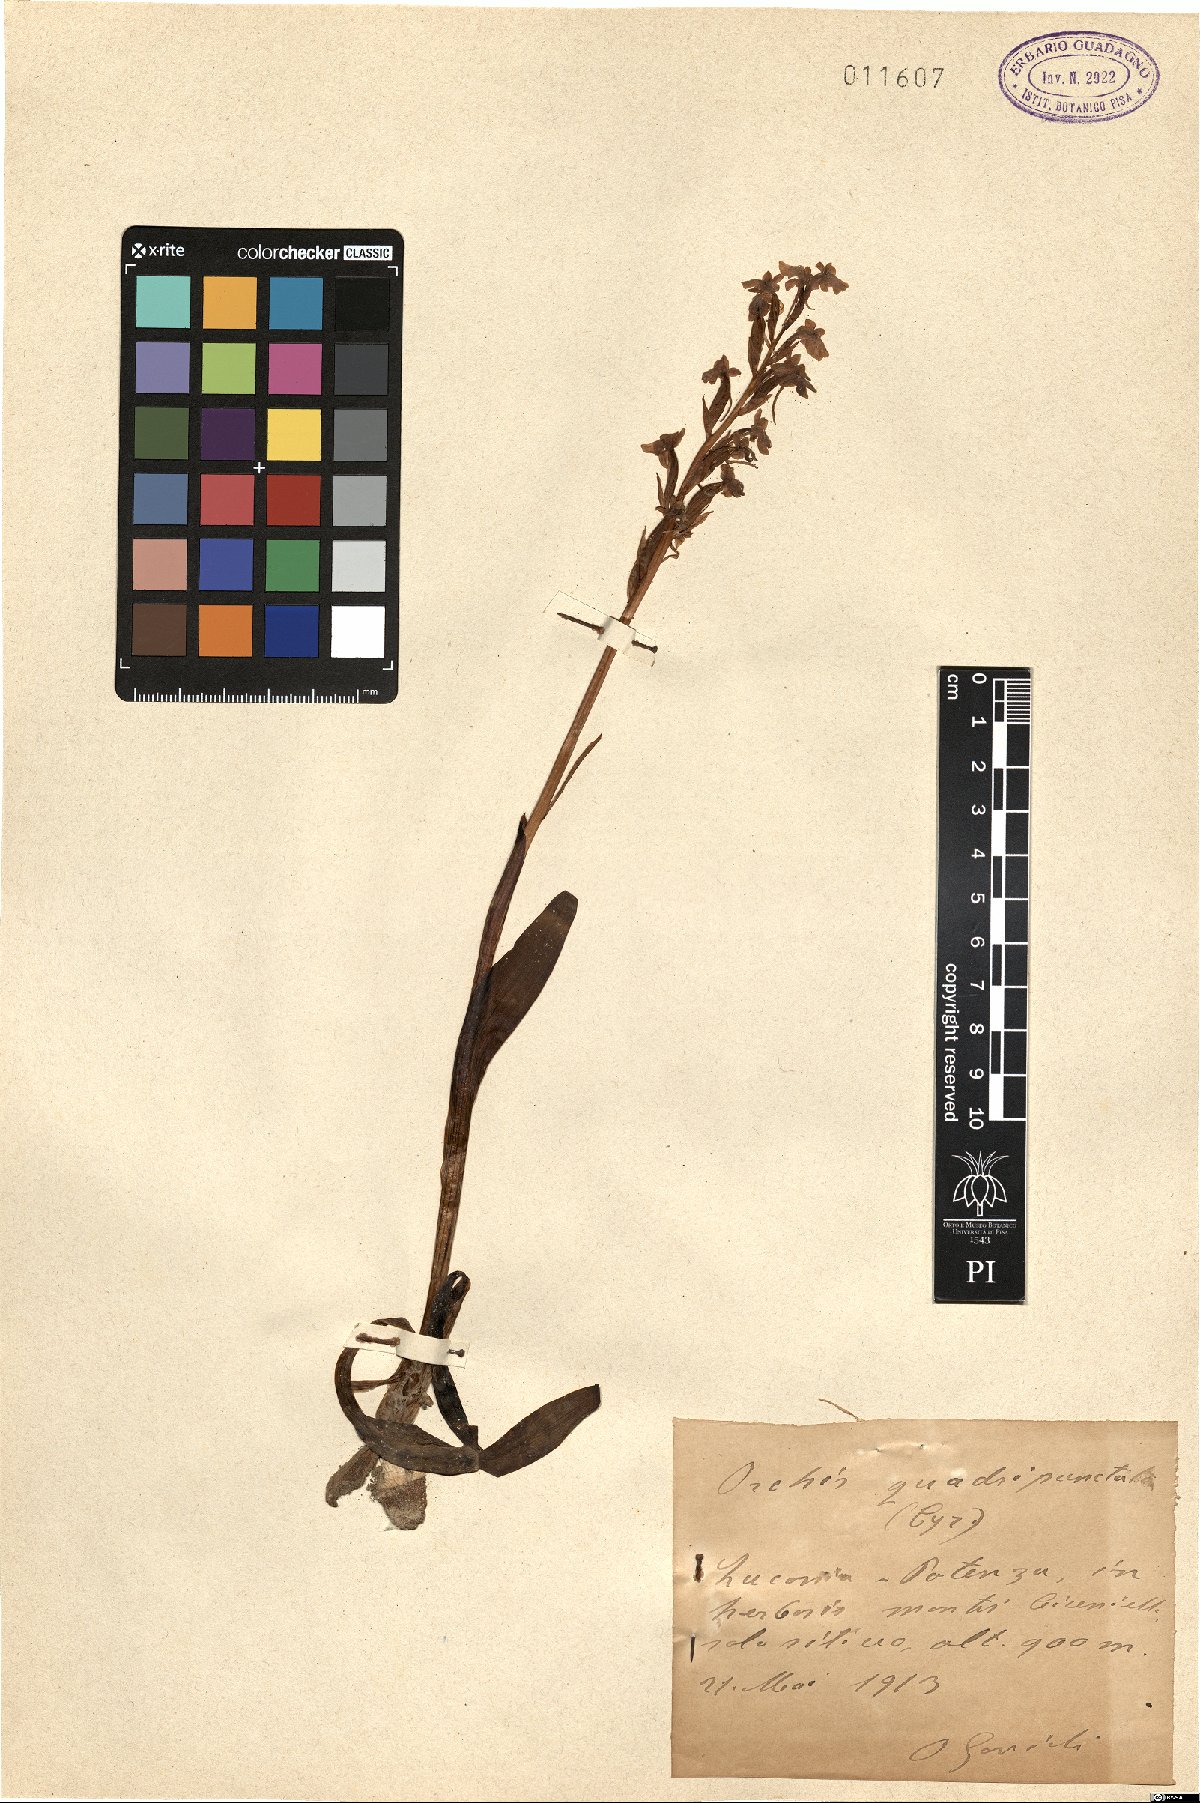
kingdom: Plantae
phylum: Tracheophyta
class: Liliopsida
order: Asparagales
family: Orchidaceae
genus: Orchis
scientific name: Orchis quadripunctata
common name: Four-spotted orchid
